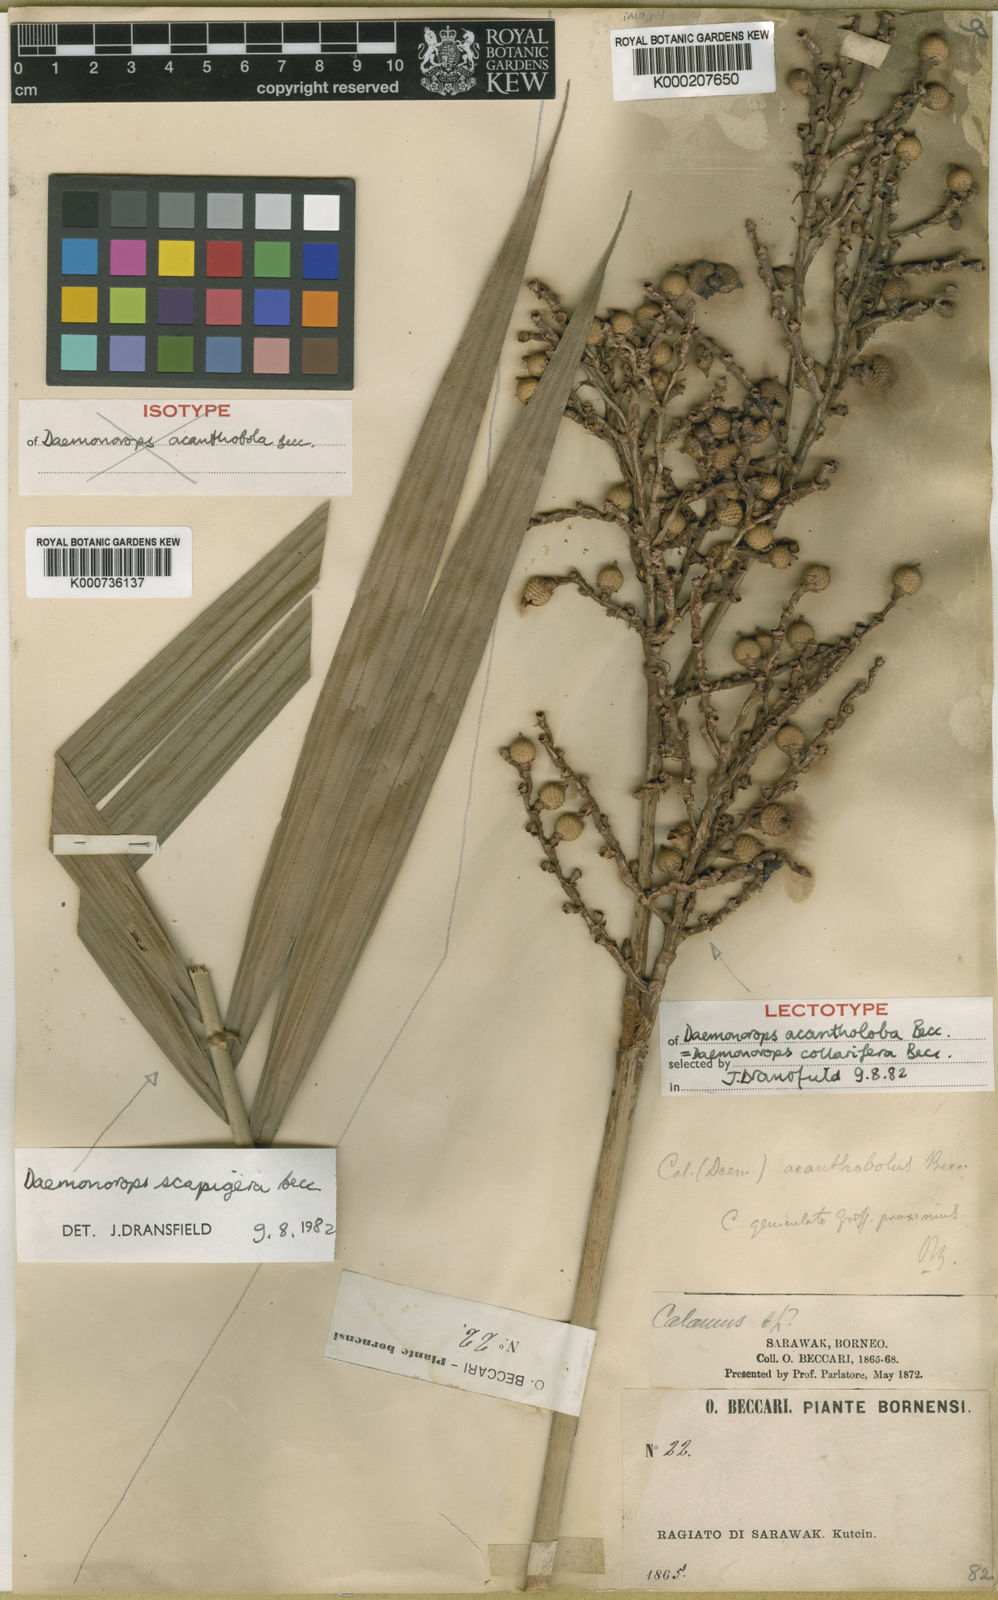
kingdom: Plantae
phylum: Tracheophyta
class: Liliopsida
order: Arecales
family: Arecaceae
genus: Calamus
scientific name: Calamus geniculatus
